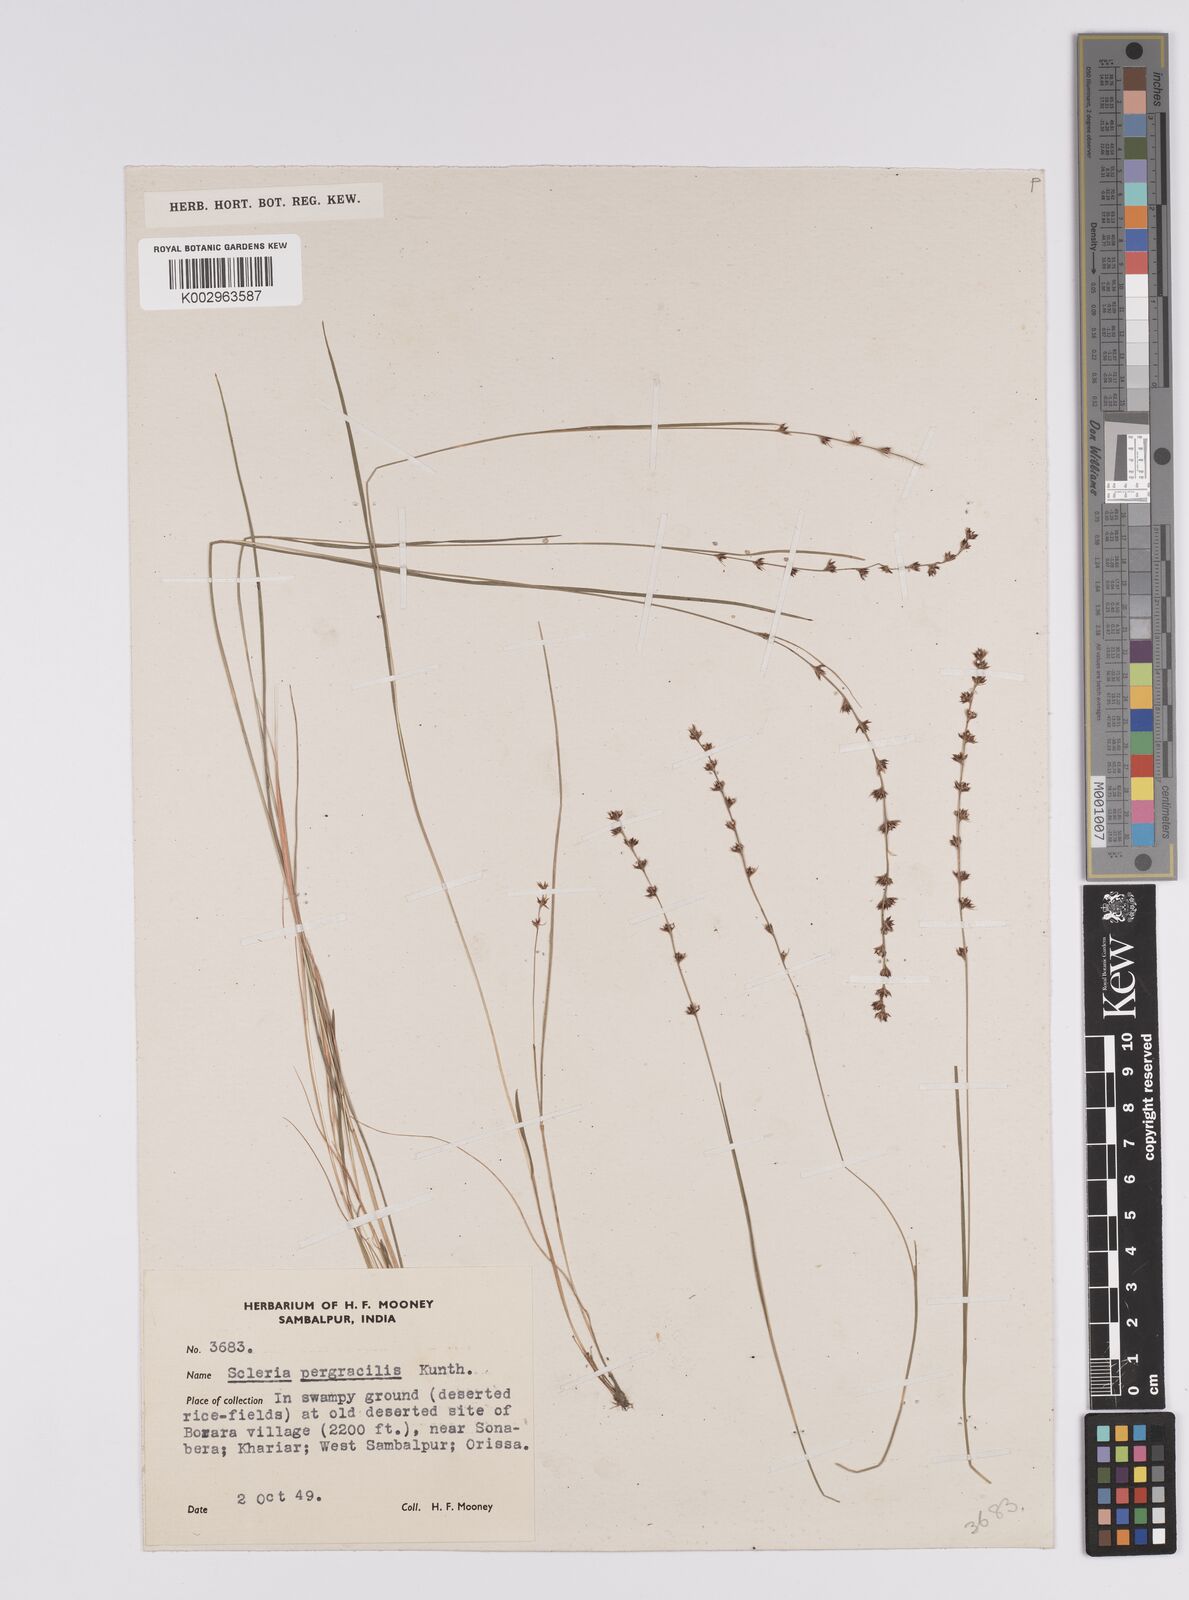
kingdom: Plantae
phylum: Tracheophyta
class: Liliopsida
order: Poales
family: Cyperaceae
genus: Scleria
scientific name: Scleria pergracilis
